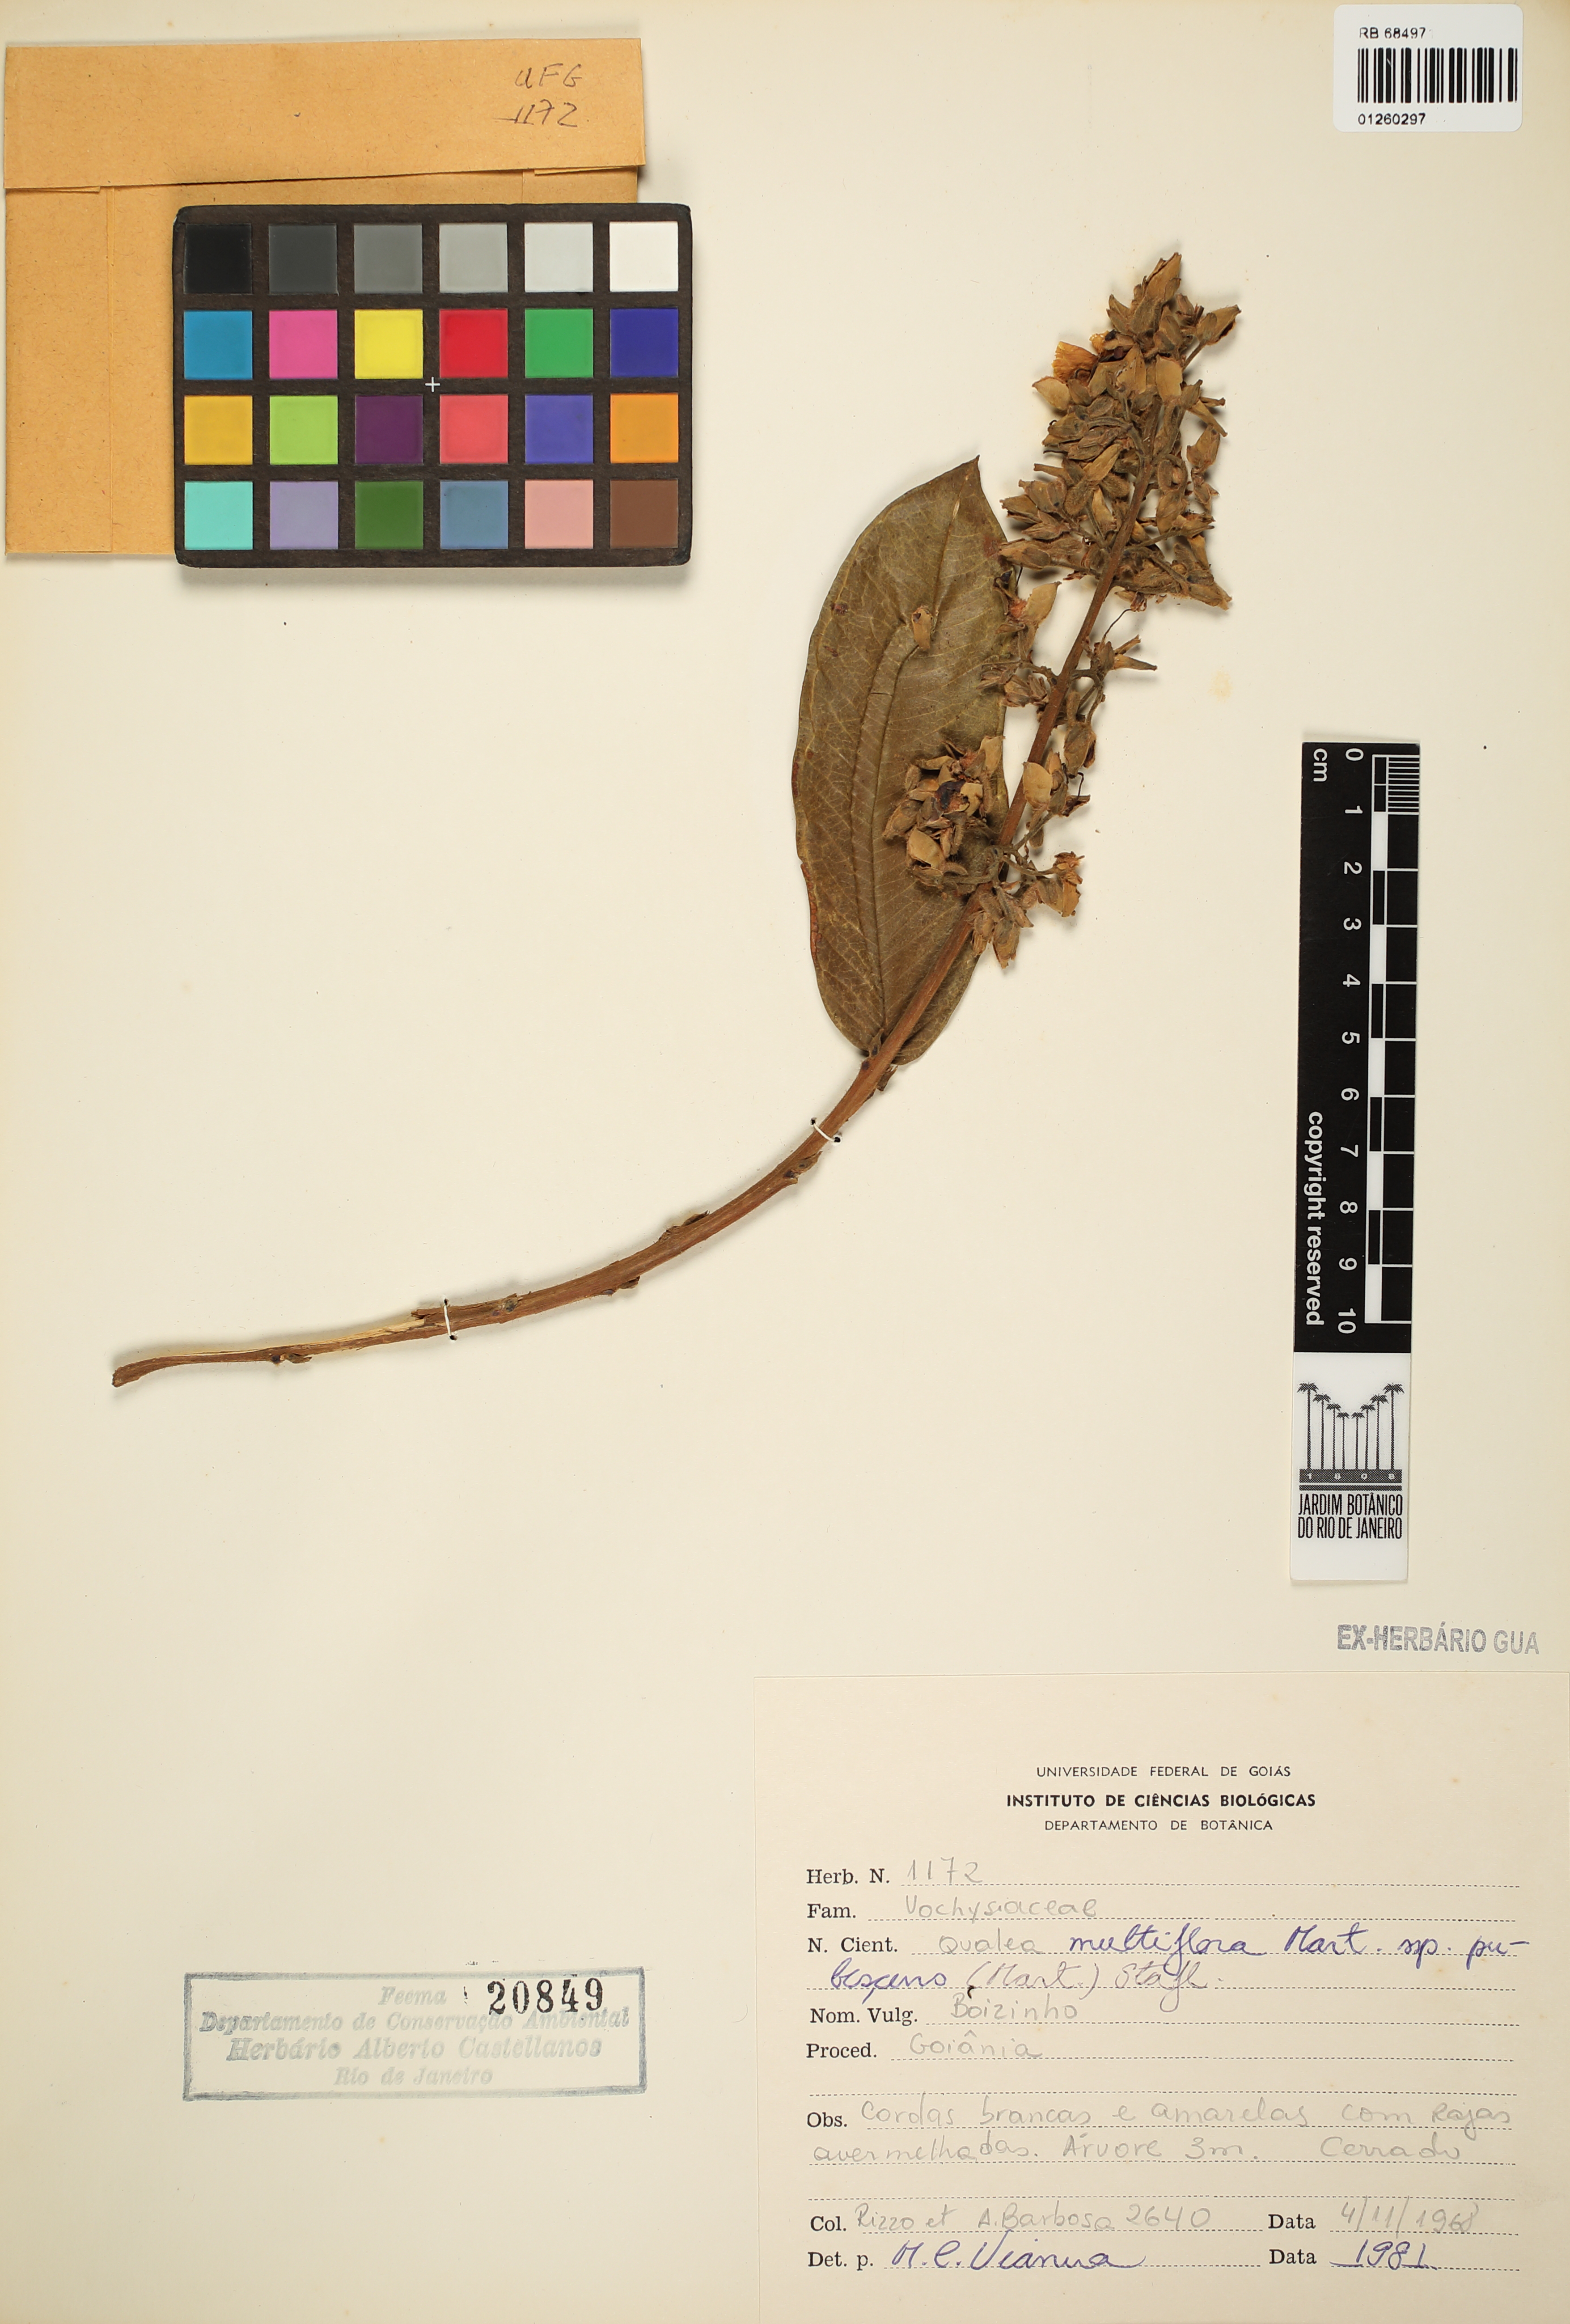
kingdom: Plantae
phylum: Tracheophyta
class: Magnoliopsida
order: Myrtales
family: Vochysiaceae
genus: Qualea
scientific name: Qualea multiflora
